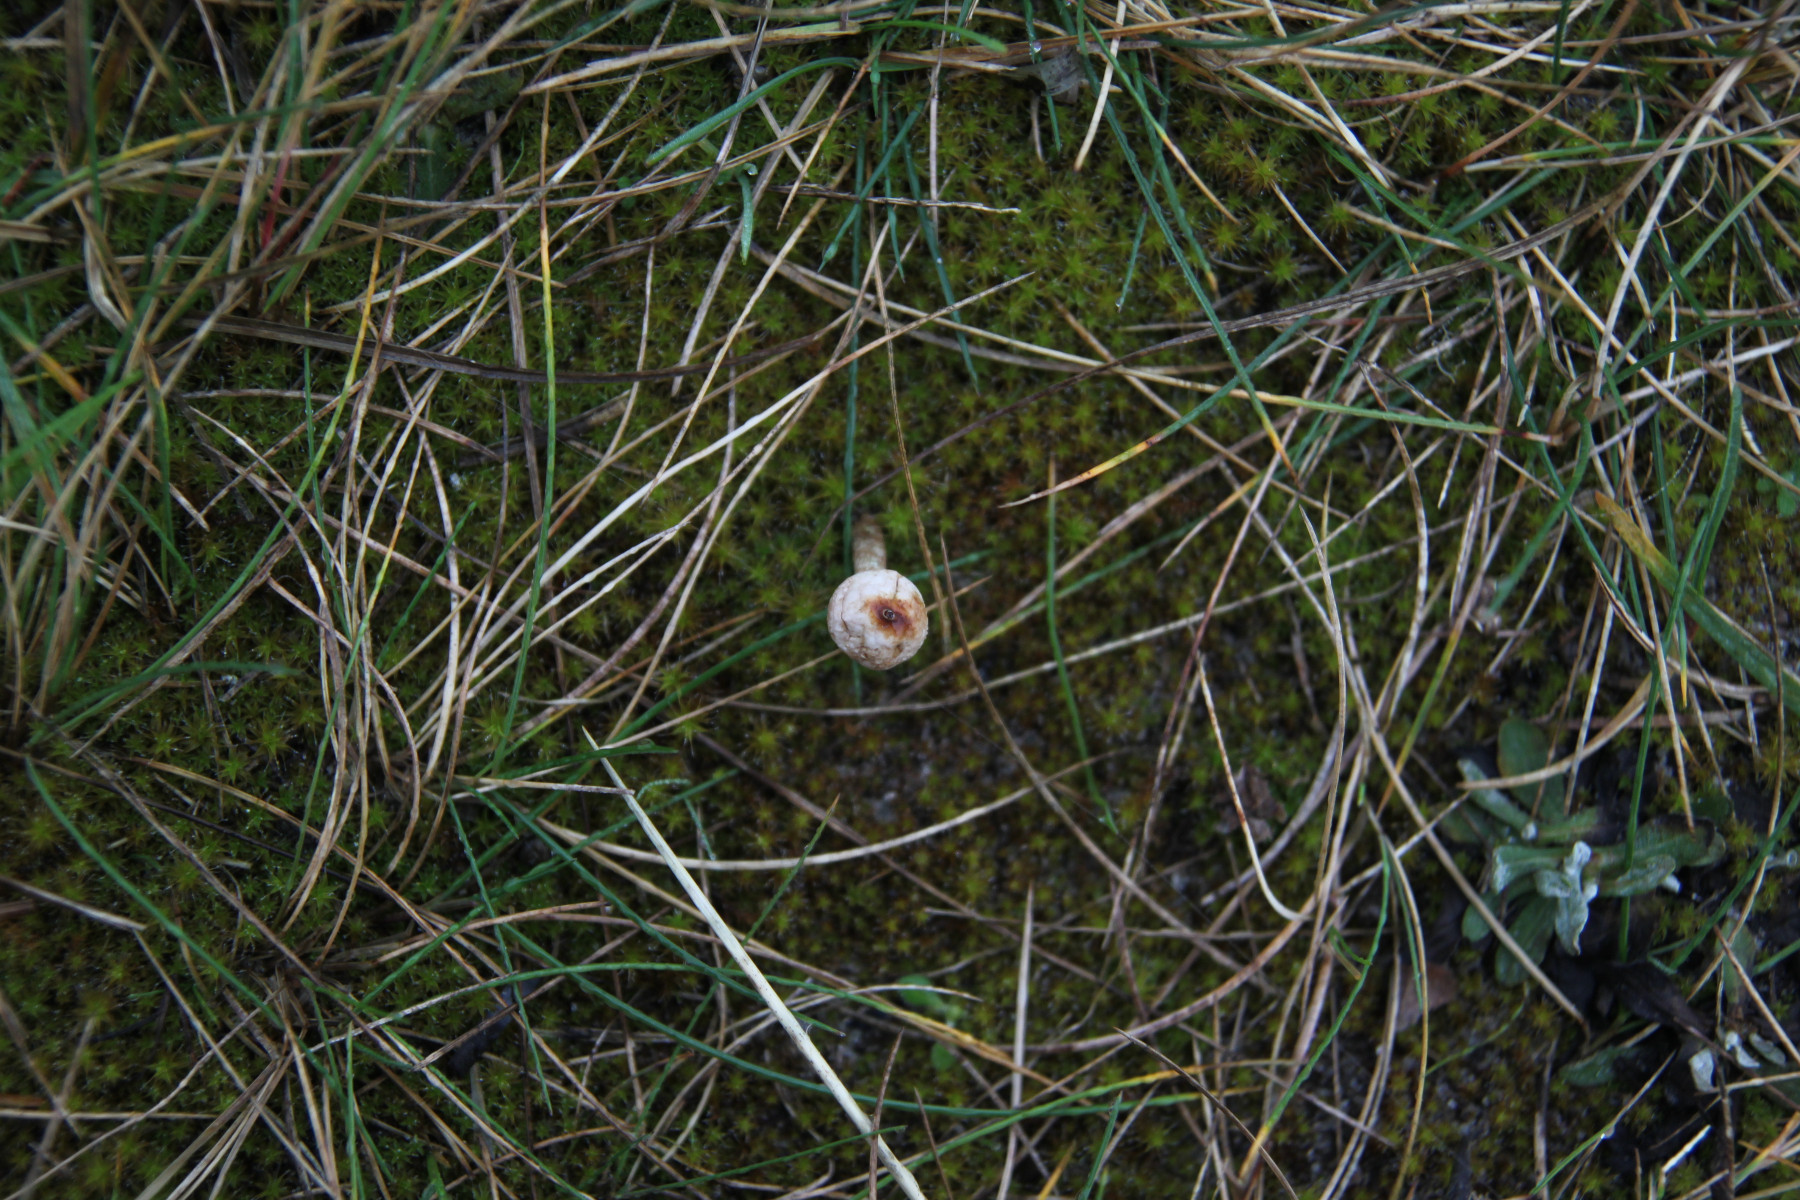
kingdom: Fungi
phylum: Basidiomycota
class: Agaricomycetes
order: Agaricales
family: Agaricaceae
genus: Tulostoma
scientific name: Tulostoma brumale
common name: vinter-stilkbovist
